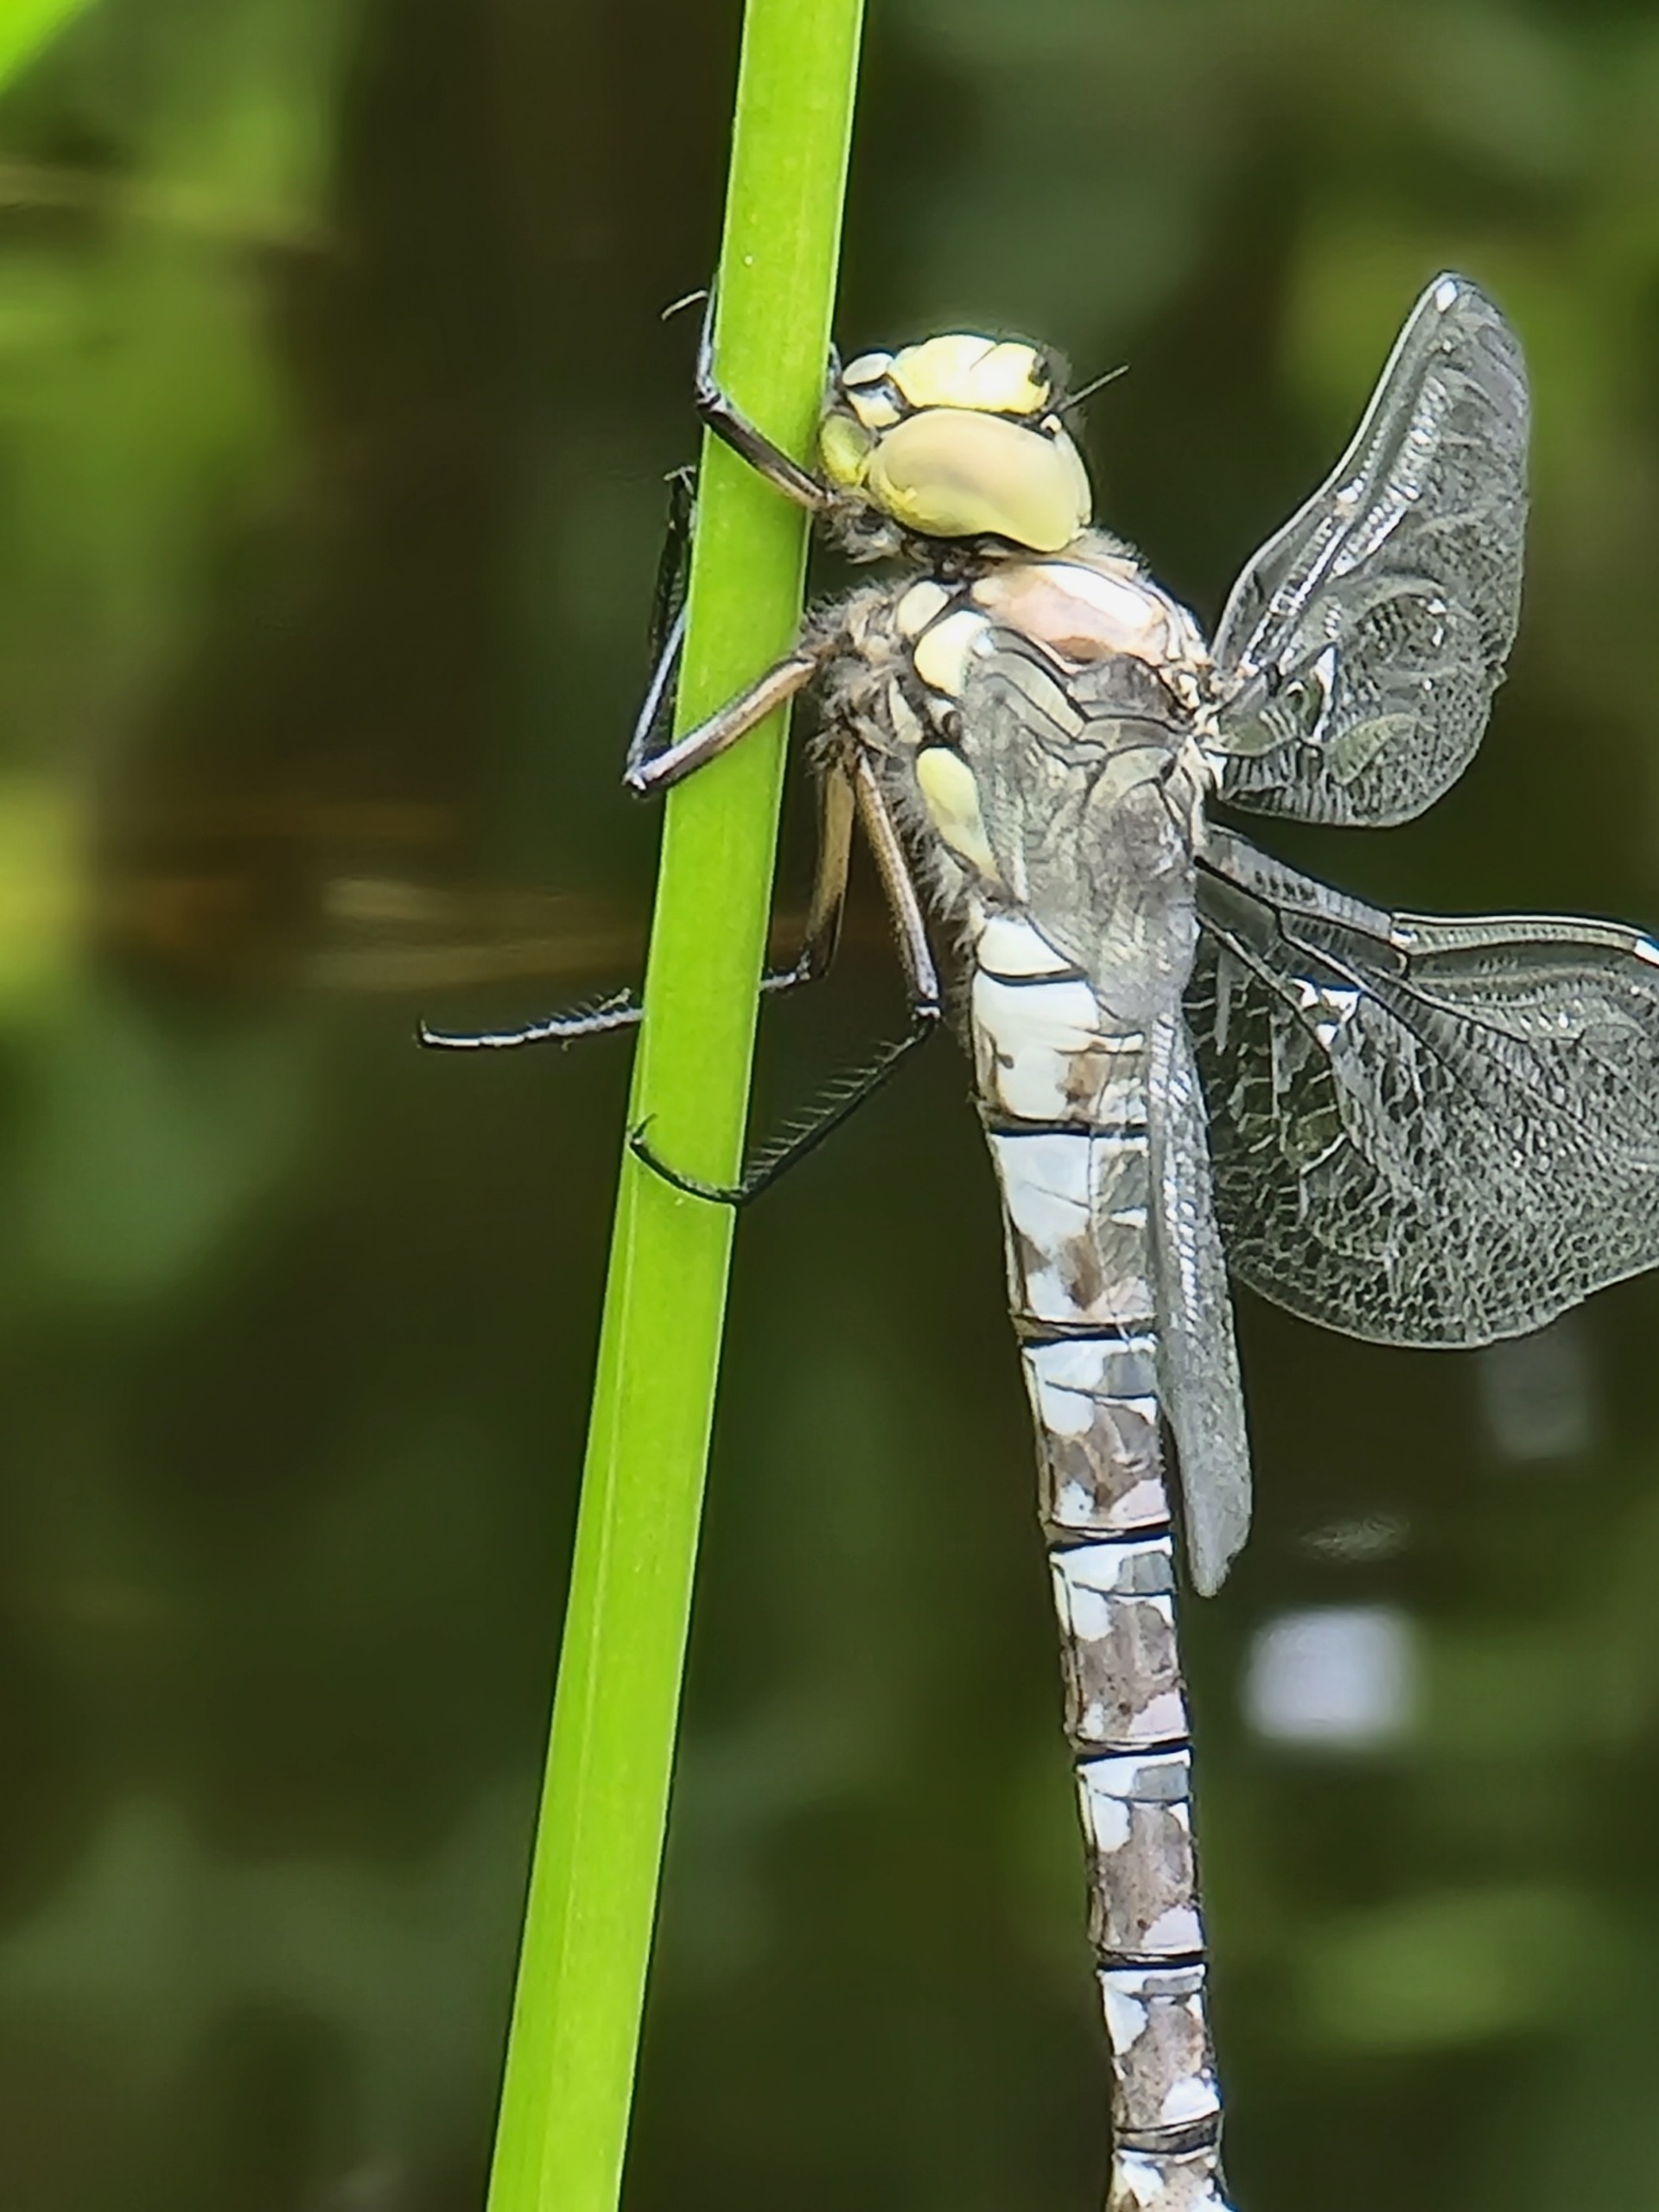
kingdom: Animalia
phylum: Arthropoda
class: Insecta
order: Odonata
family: Aeshnidae
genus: Aeshna
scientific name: Aeshna cyanea
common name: Blå mosaikguldsmed
